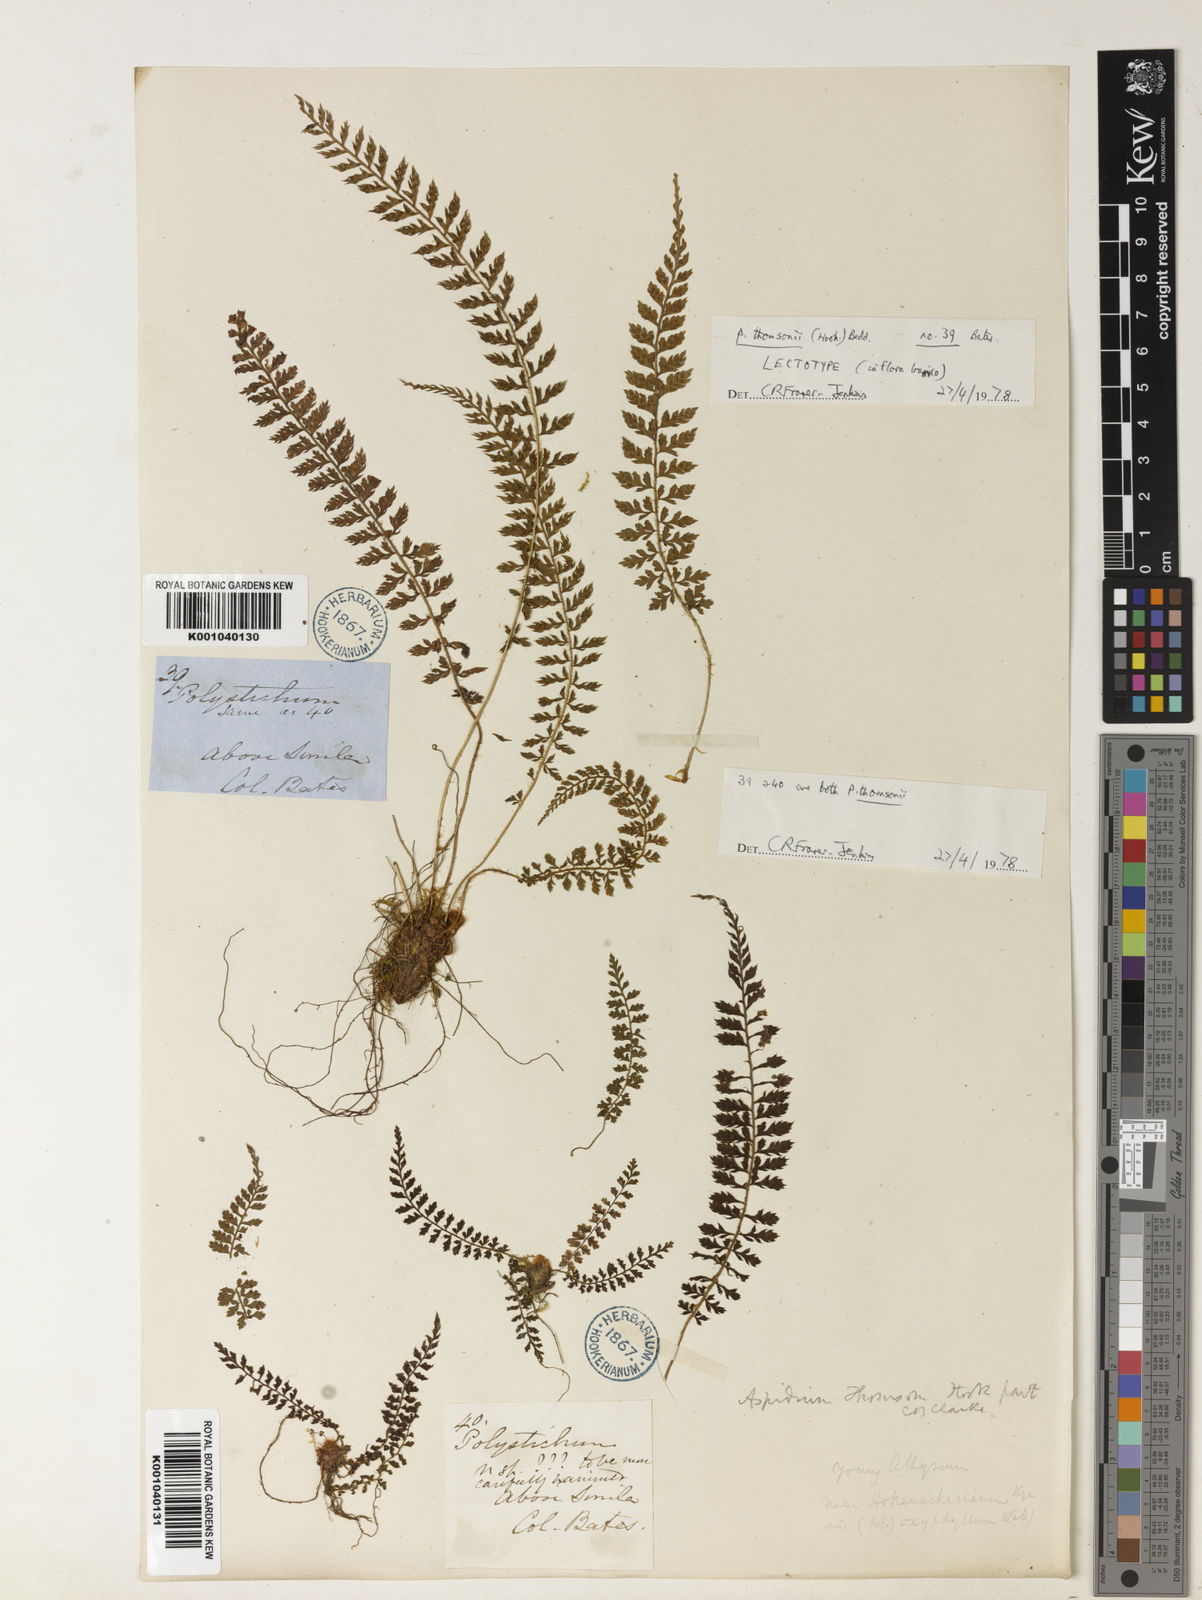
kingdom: Plantae
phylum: Tracheophyta
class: Polypodiopsida
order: Polypodiales
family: Dryopteridaceae
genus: Polystichum
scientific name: Polystichum thomsonii
